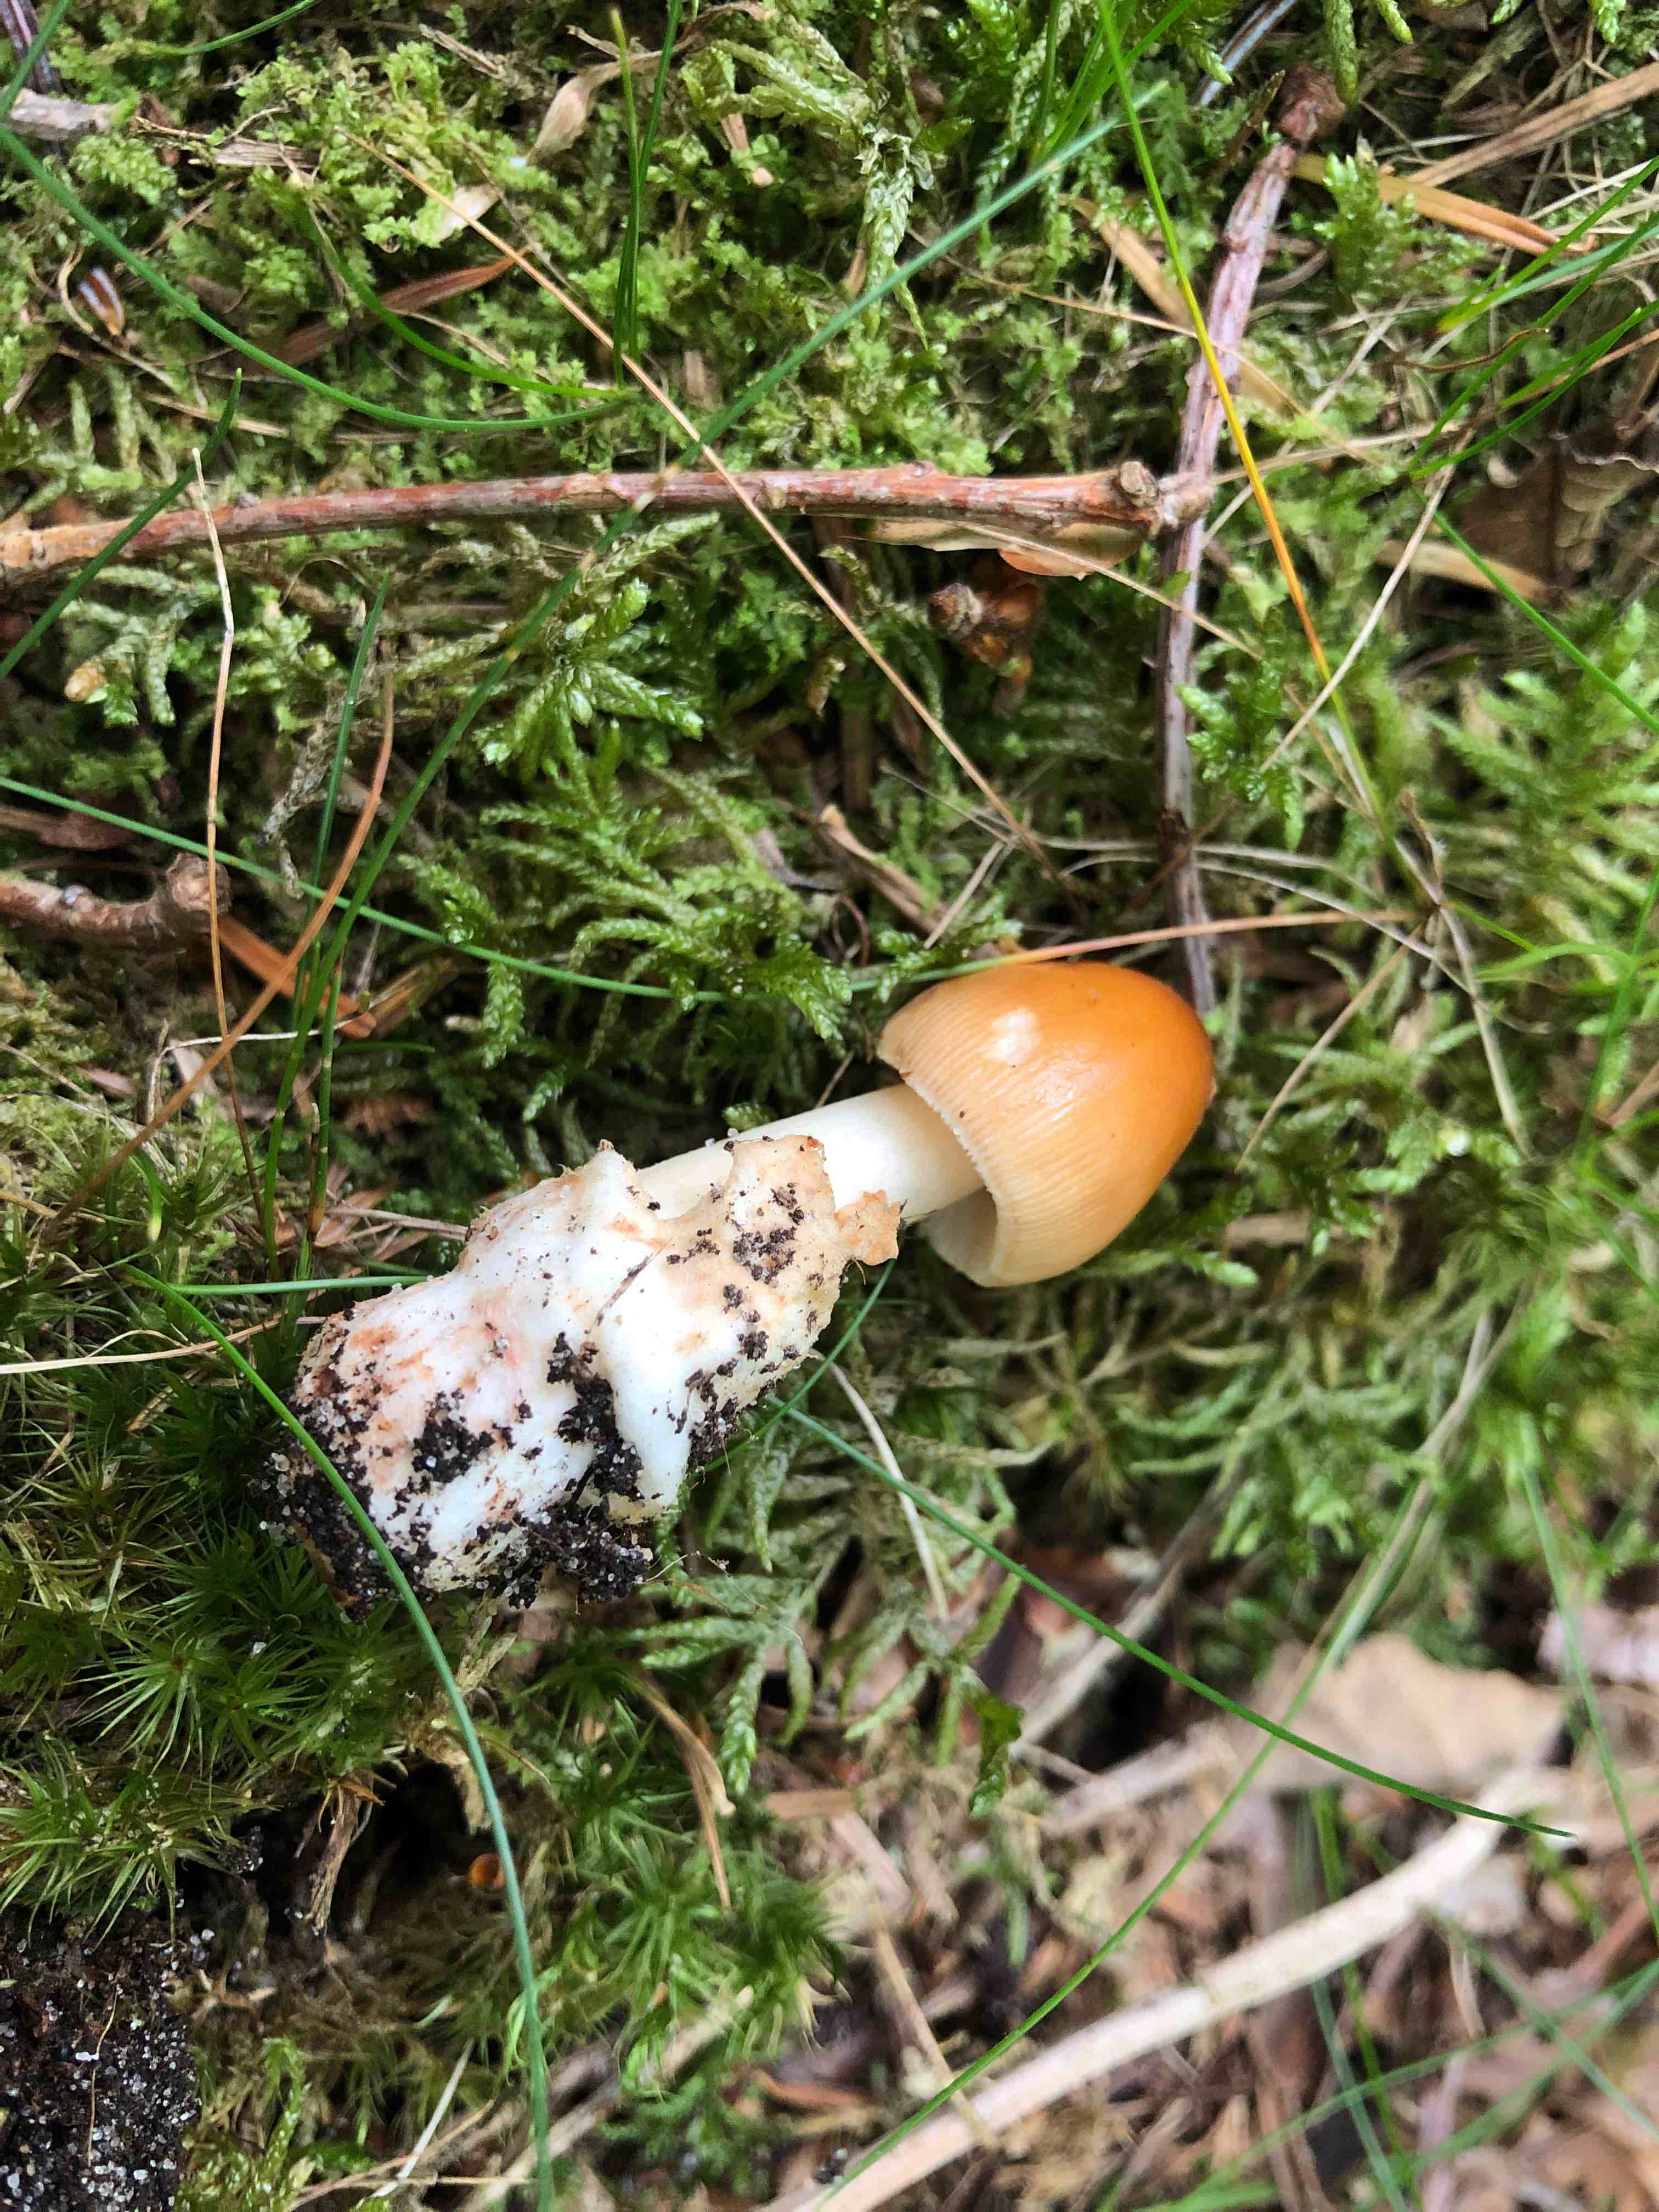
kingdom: Fungi
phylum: Basidiomycota
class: Agaricomycetes
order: Agaricales
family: Amanitaceae
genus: Amanita
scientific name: Amanita fulva
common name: brun kam-fluesvamp
